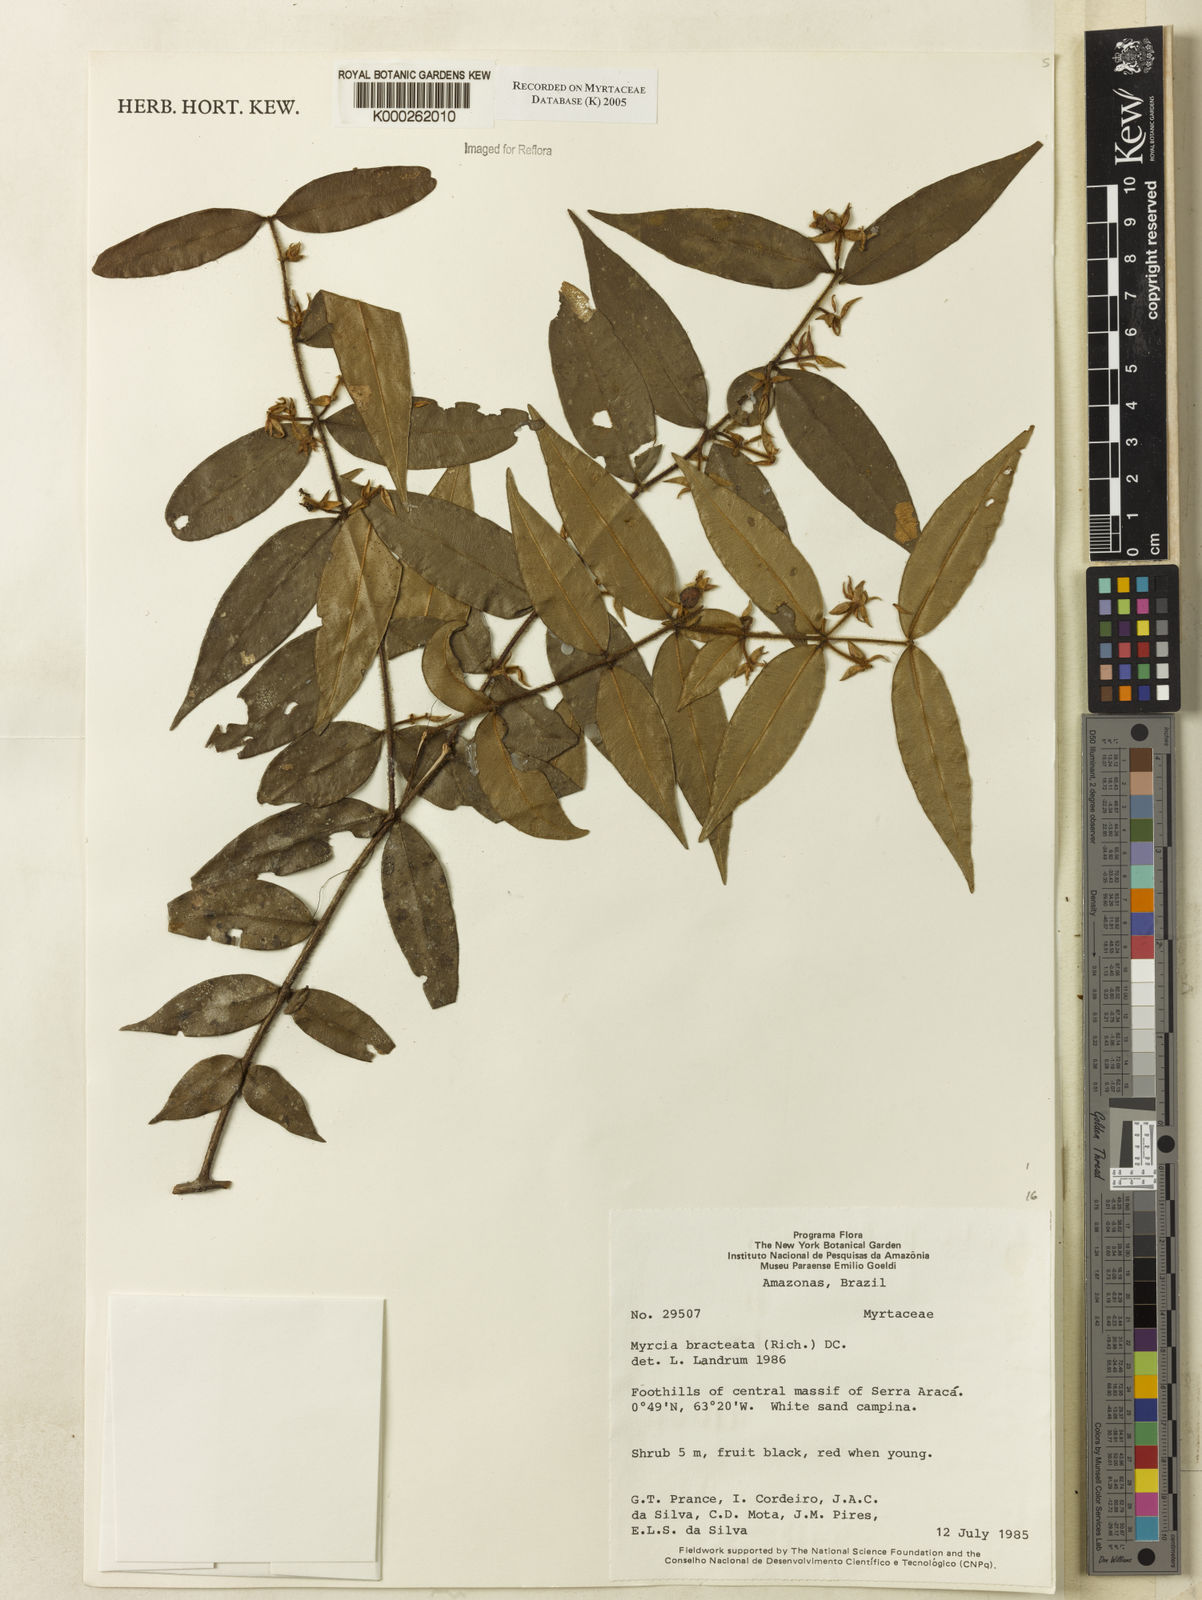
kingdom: Plantae
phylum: Tracheophyta
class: Magnoliopsida
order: Myrtales
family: Myrtaceae
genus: Myrcia
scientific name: Myrcia bracteata
